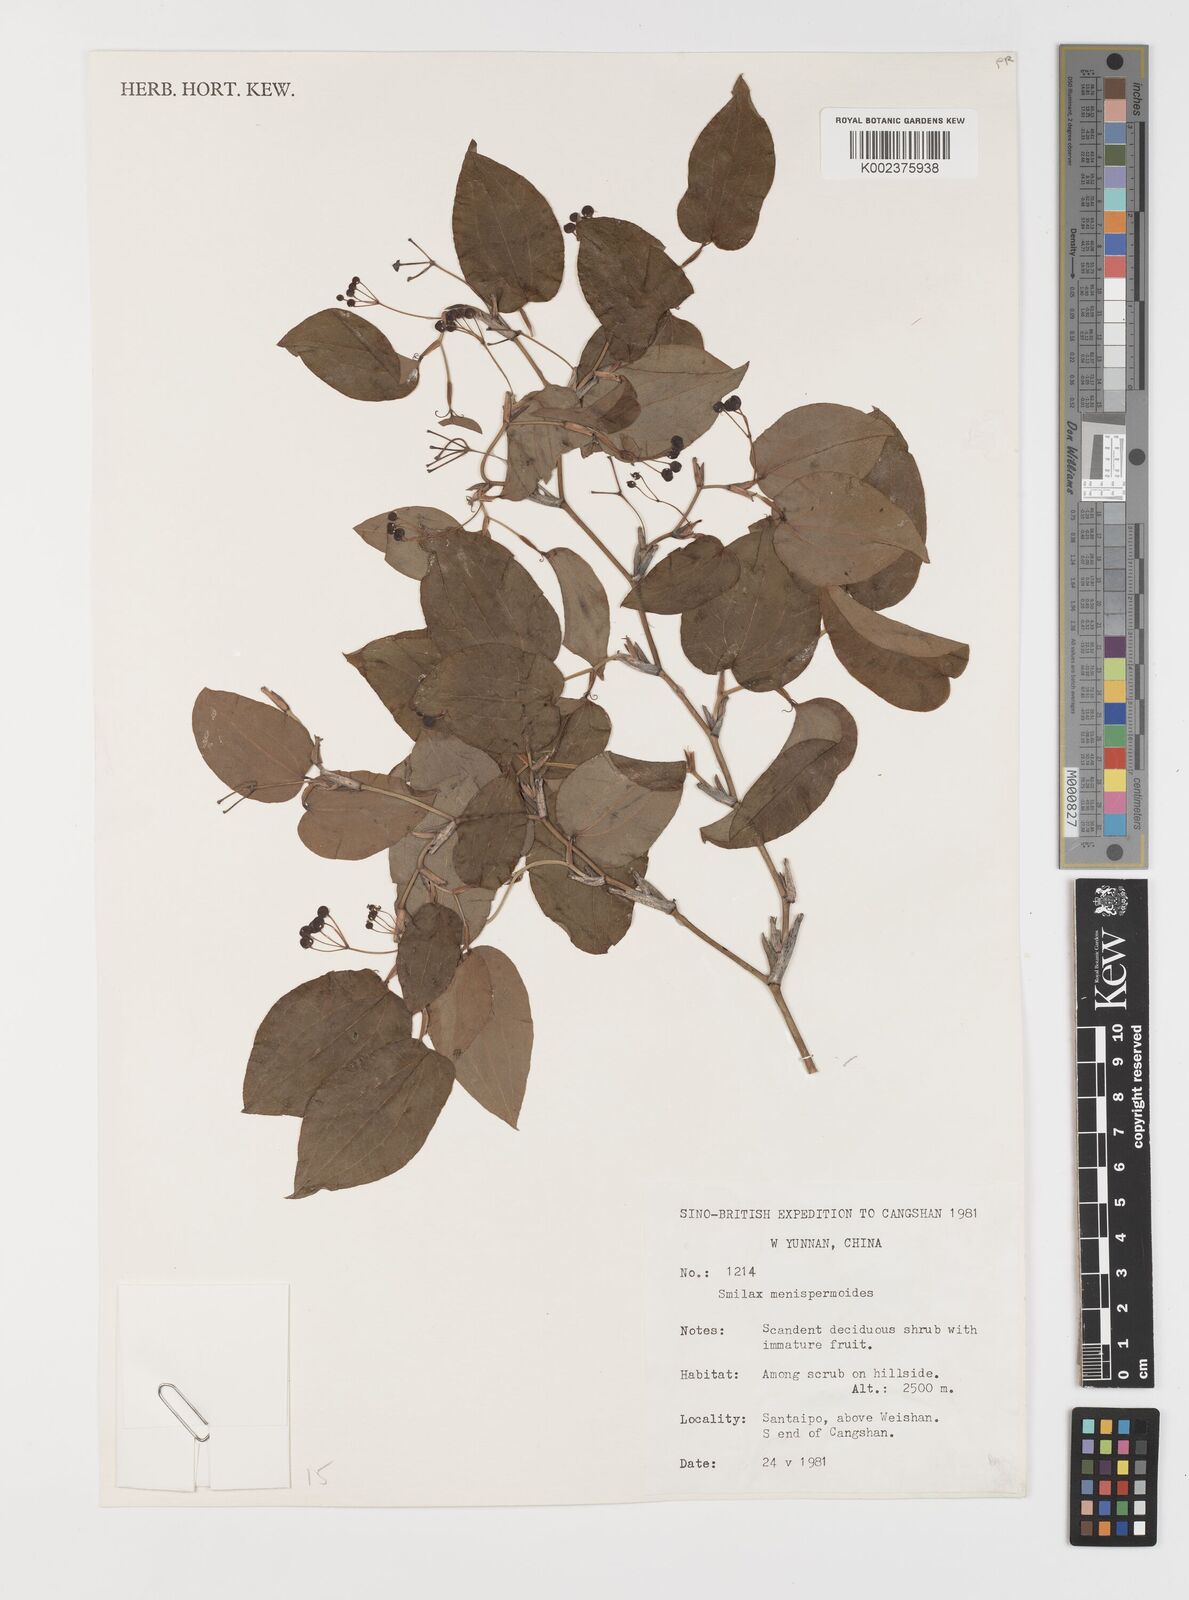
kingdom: Plantae
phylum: Tracheophyta
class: Liliopsida
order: Liliales
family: Smilacaceae
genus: Smilax
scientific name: Smilax menispermoidea
